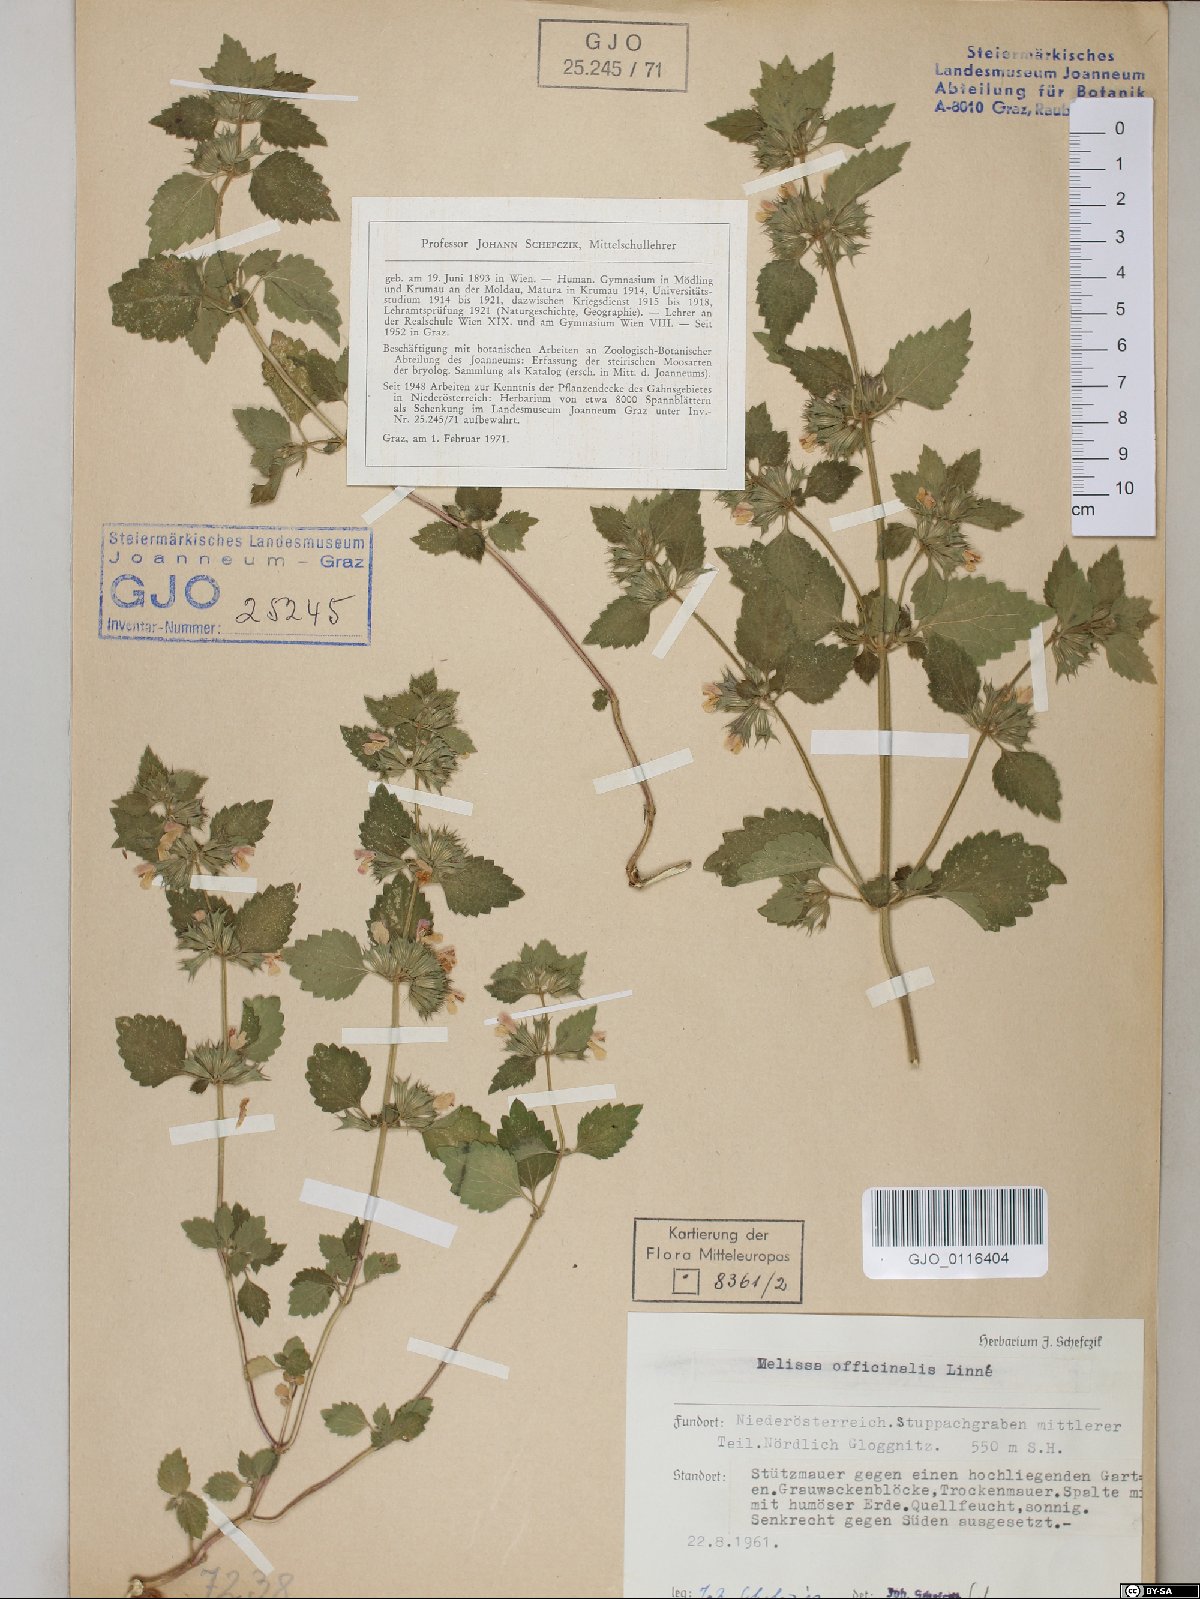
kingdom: Plantae
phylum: Tracheophyta
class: Magnoliopsida
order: Lamiales
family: Lamiaceae
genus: Melissa
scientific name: Melissa officinalis
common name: Balm
